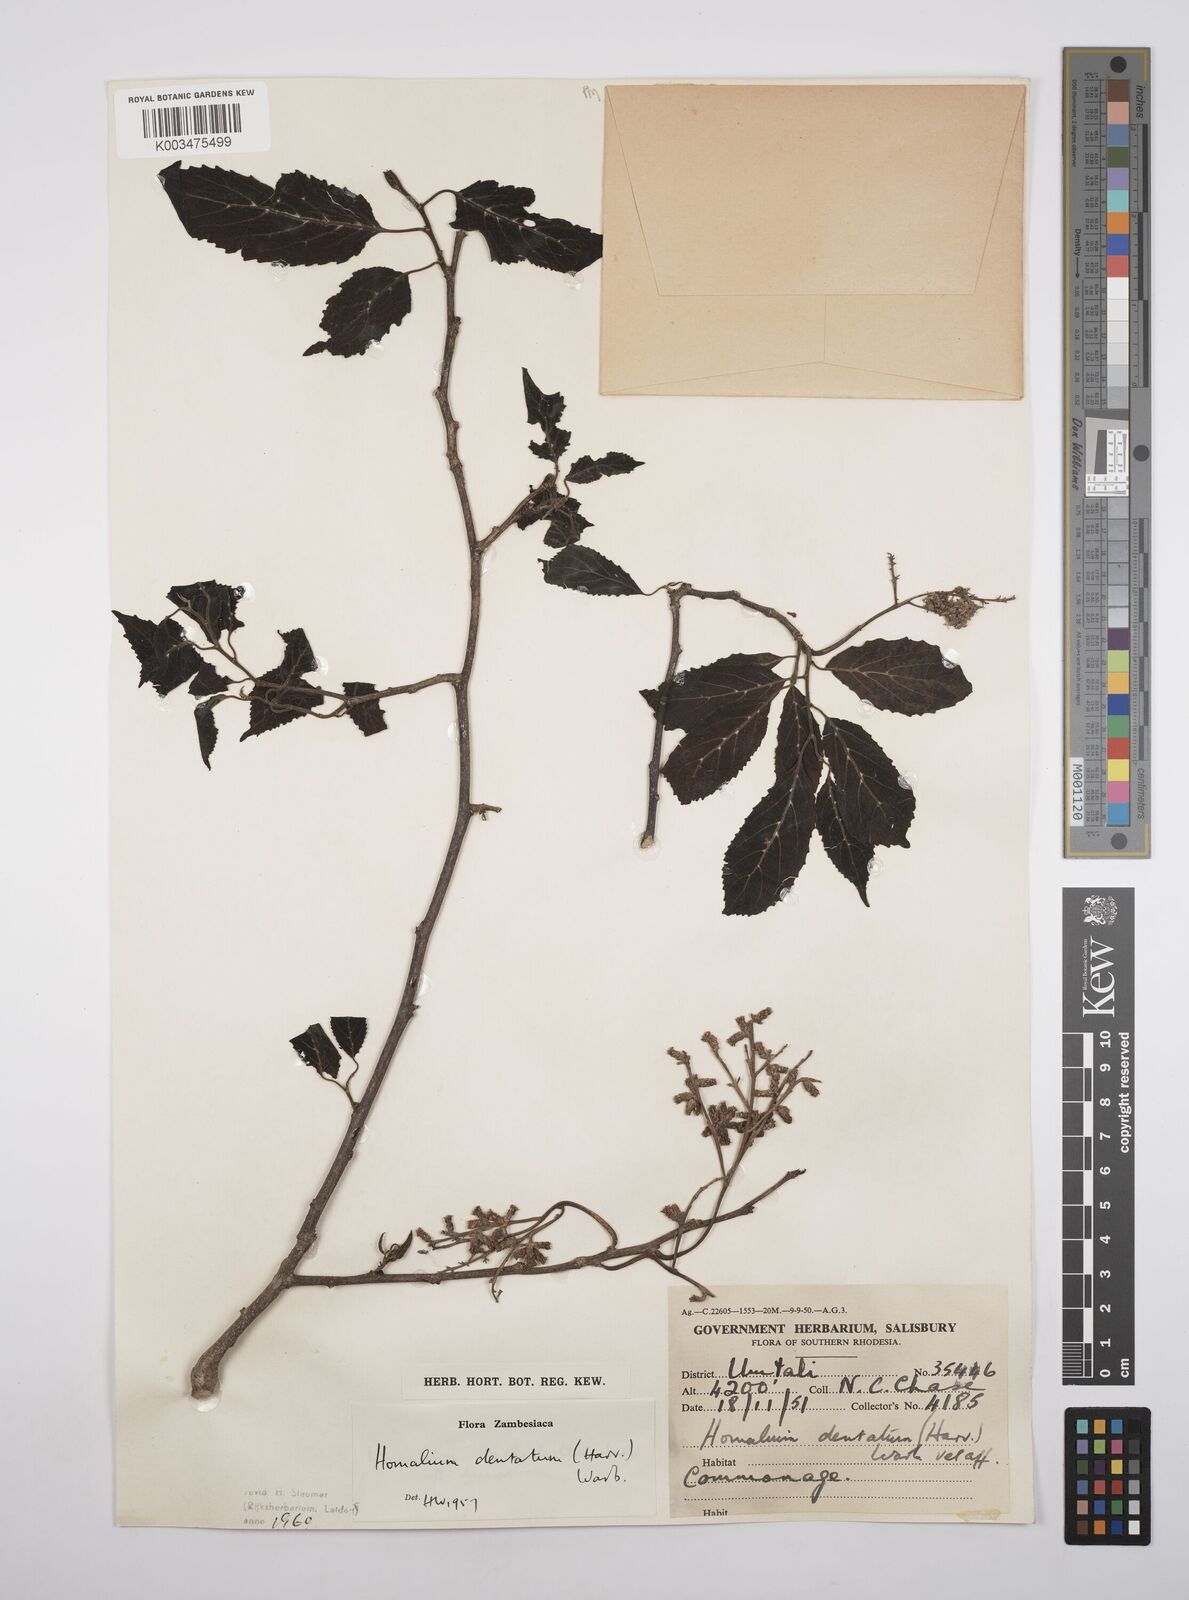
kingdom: Plantae
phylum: Tracheophyta
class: Magnoliopsida
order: Malpighiales
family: Salicaceae
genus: Homalium
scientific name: Homalium dentatum
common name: Brown ironwood
